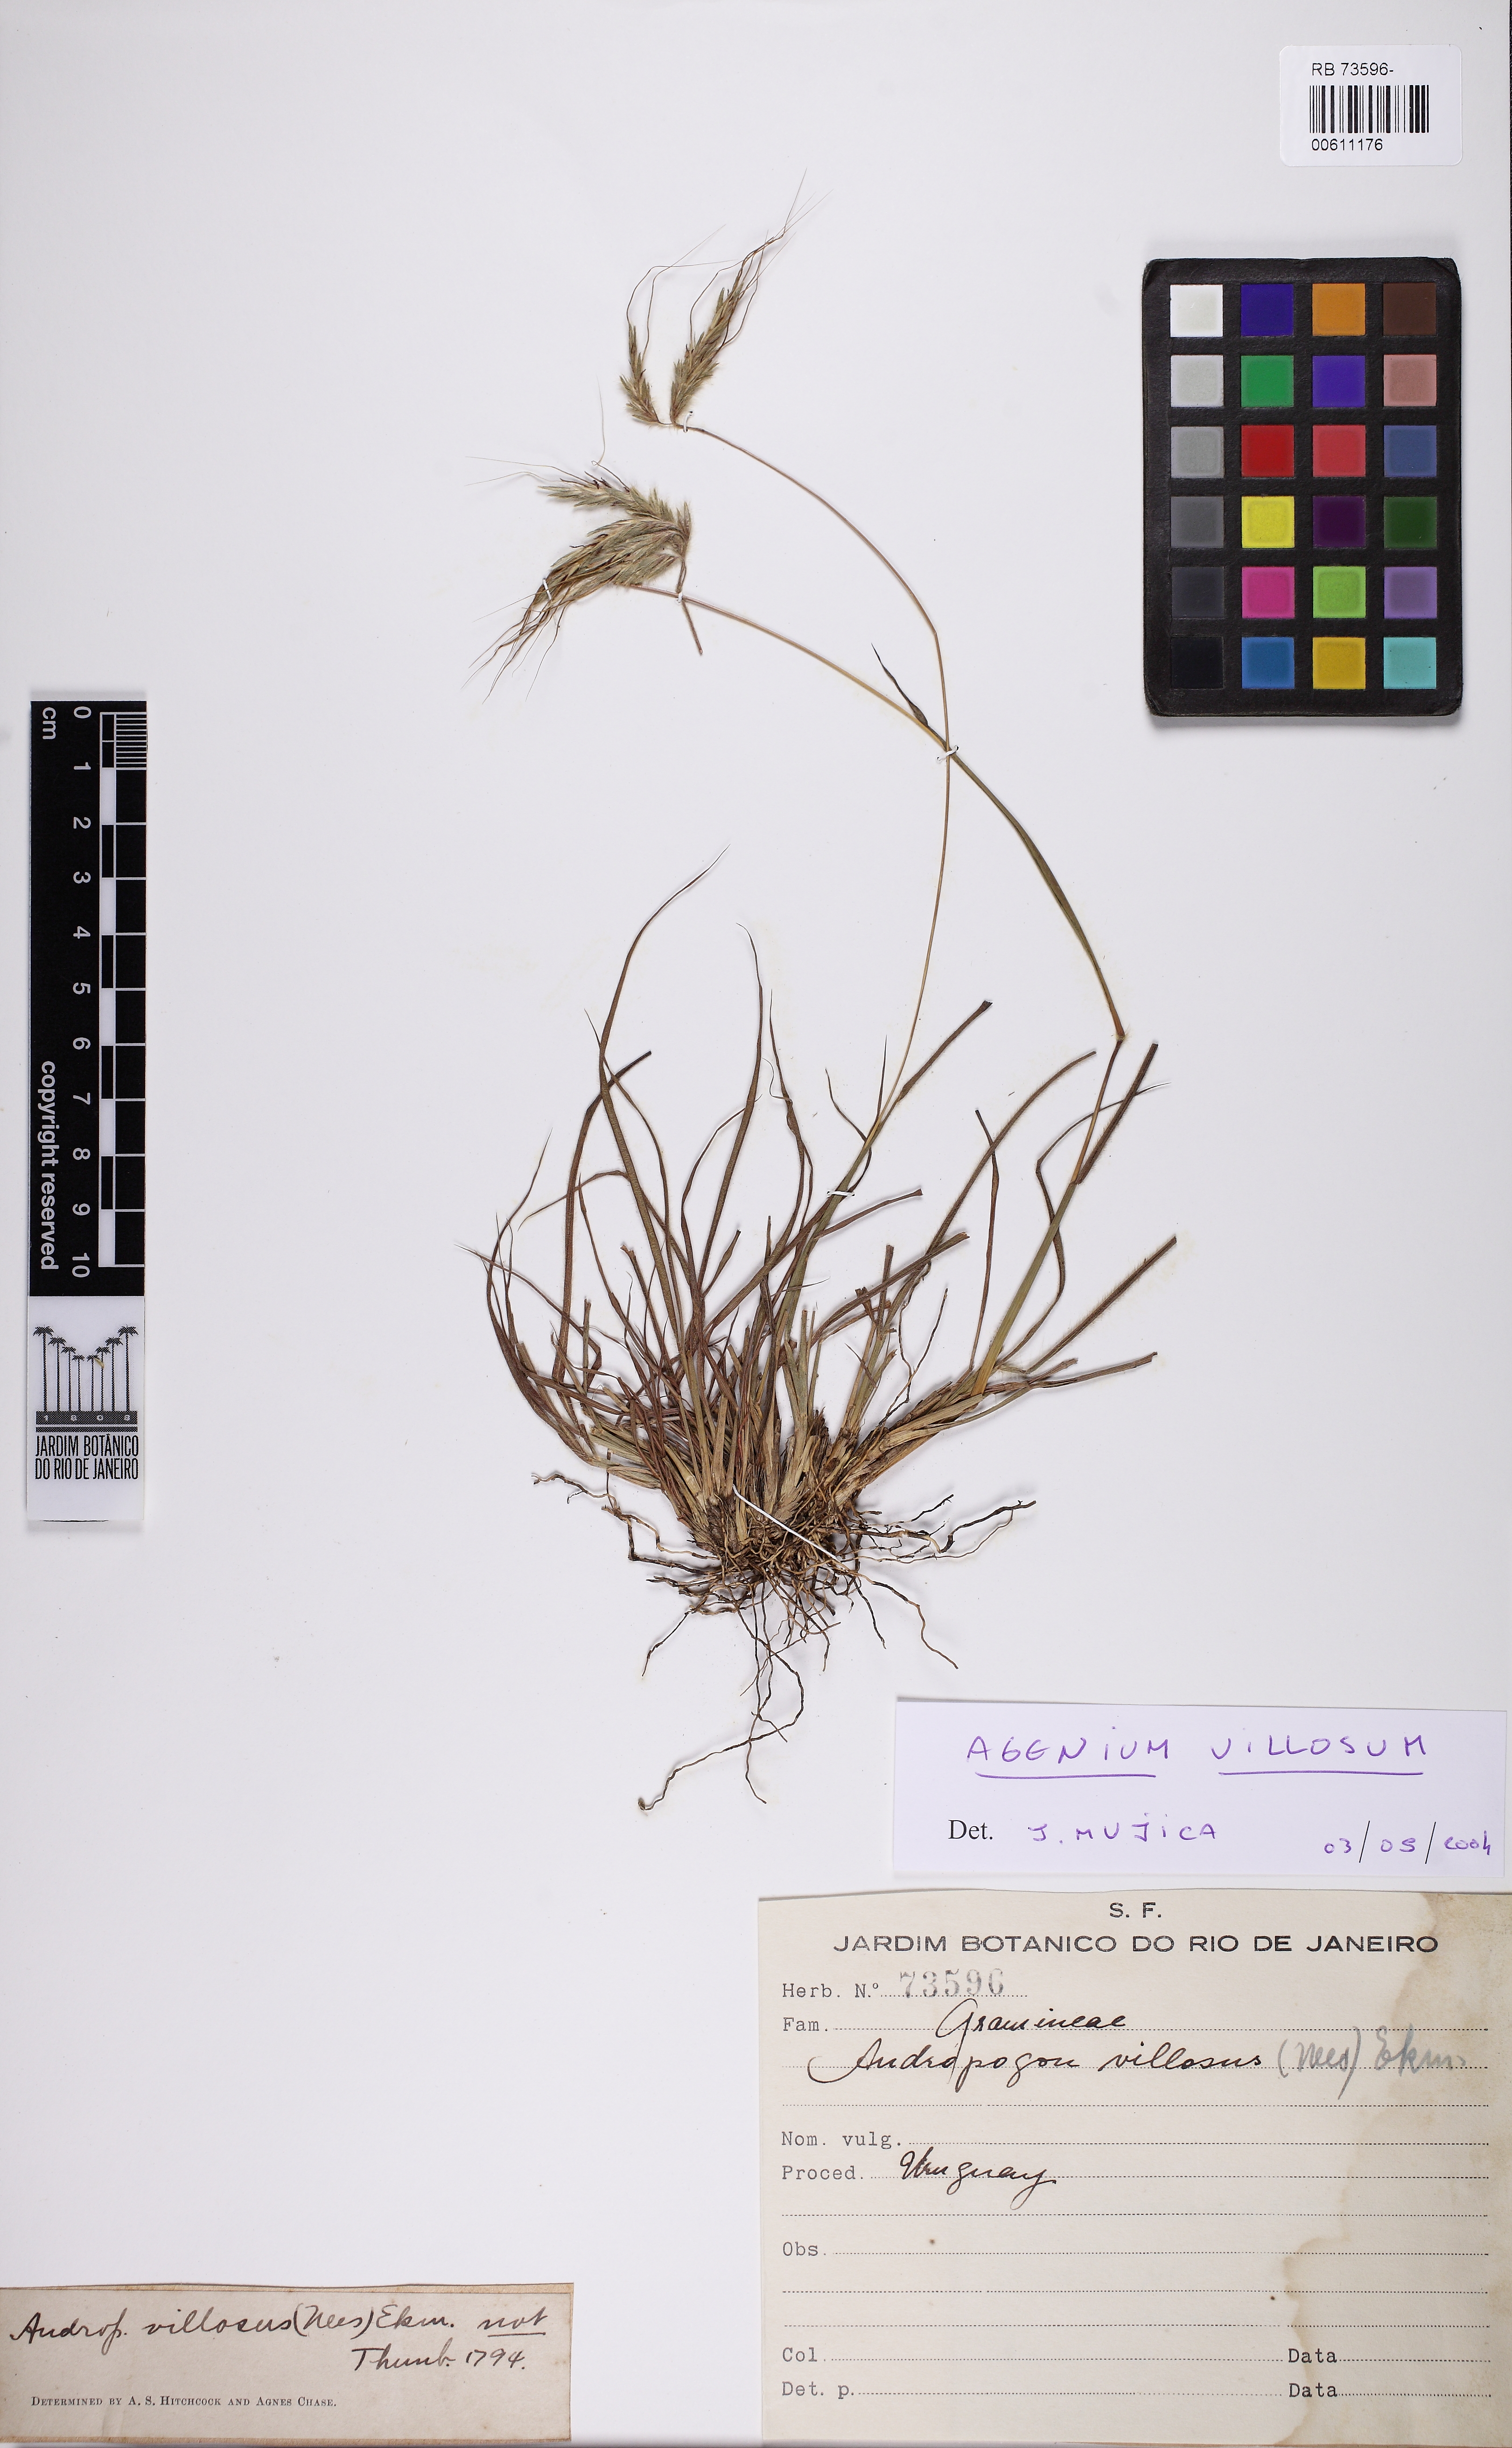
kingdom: Plantae
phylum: Tracheophyta
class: Liliopsida
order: Poales
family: Poaceae
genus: Agenium
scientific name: Agenium villosum
